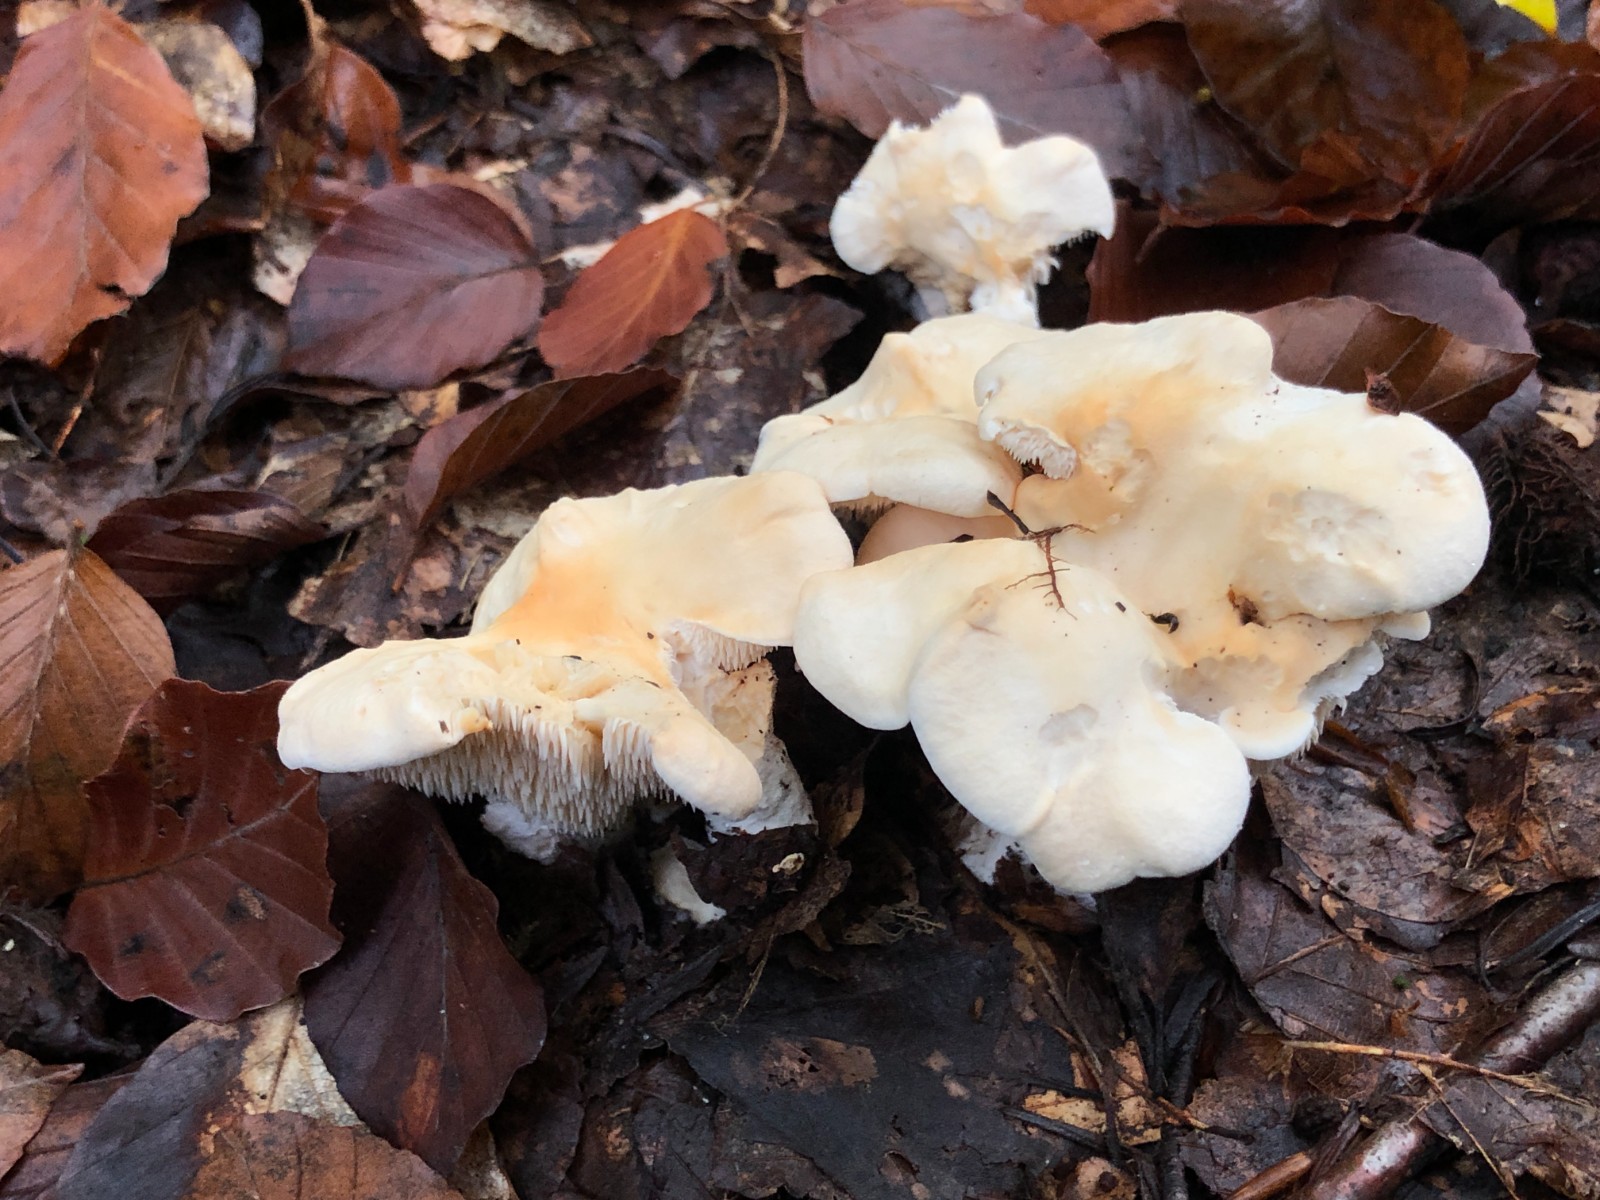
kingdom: Fungi
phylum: Basidiomycota
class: Agaricomycetes
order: Cantharellales
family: Hydnaceae
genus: Hydnum
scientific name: Hydnum repandum
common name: almindelig pigsvamp
